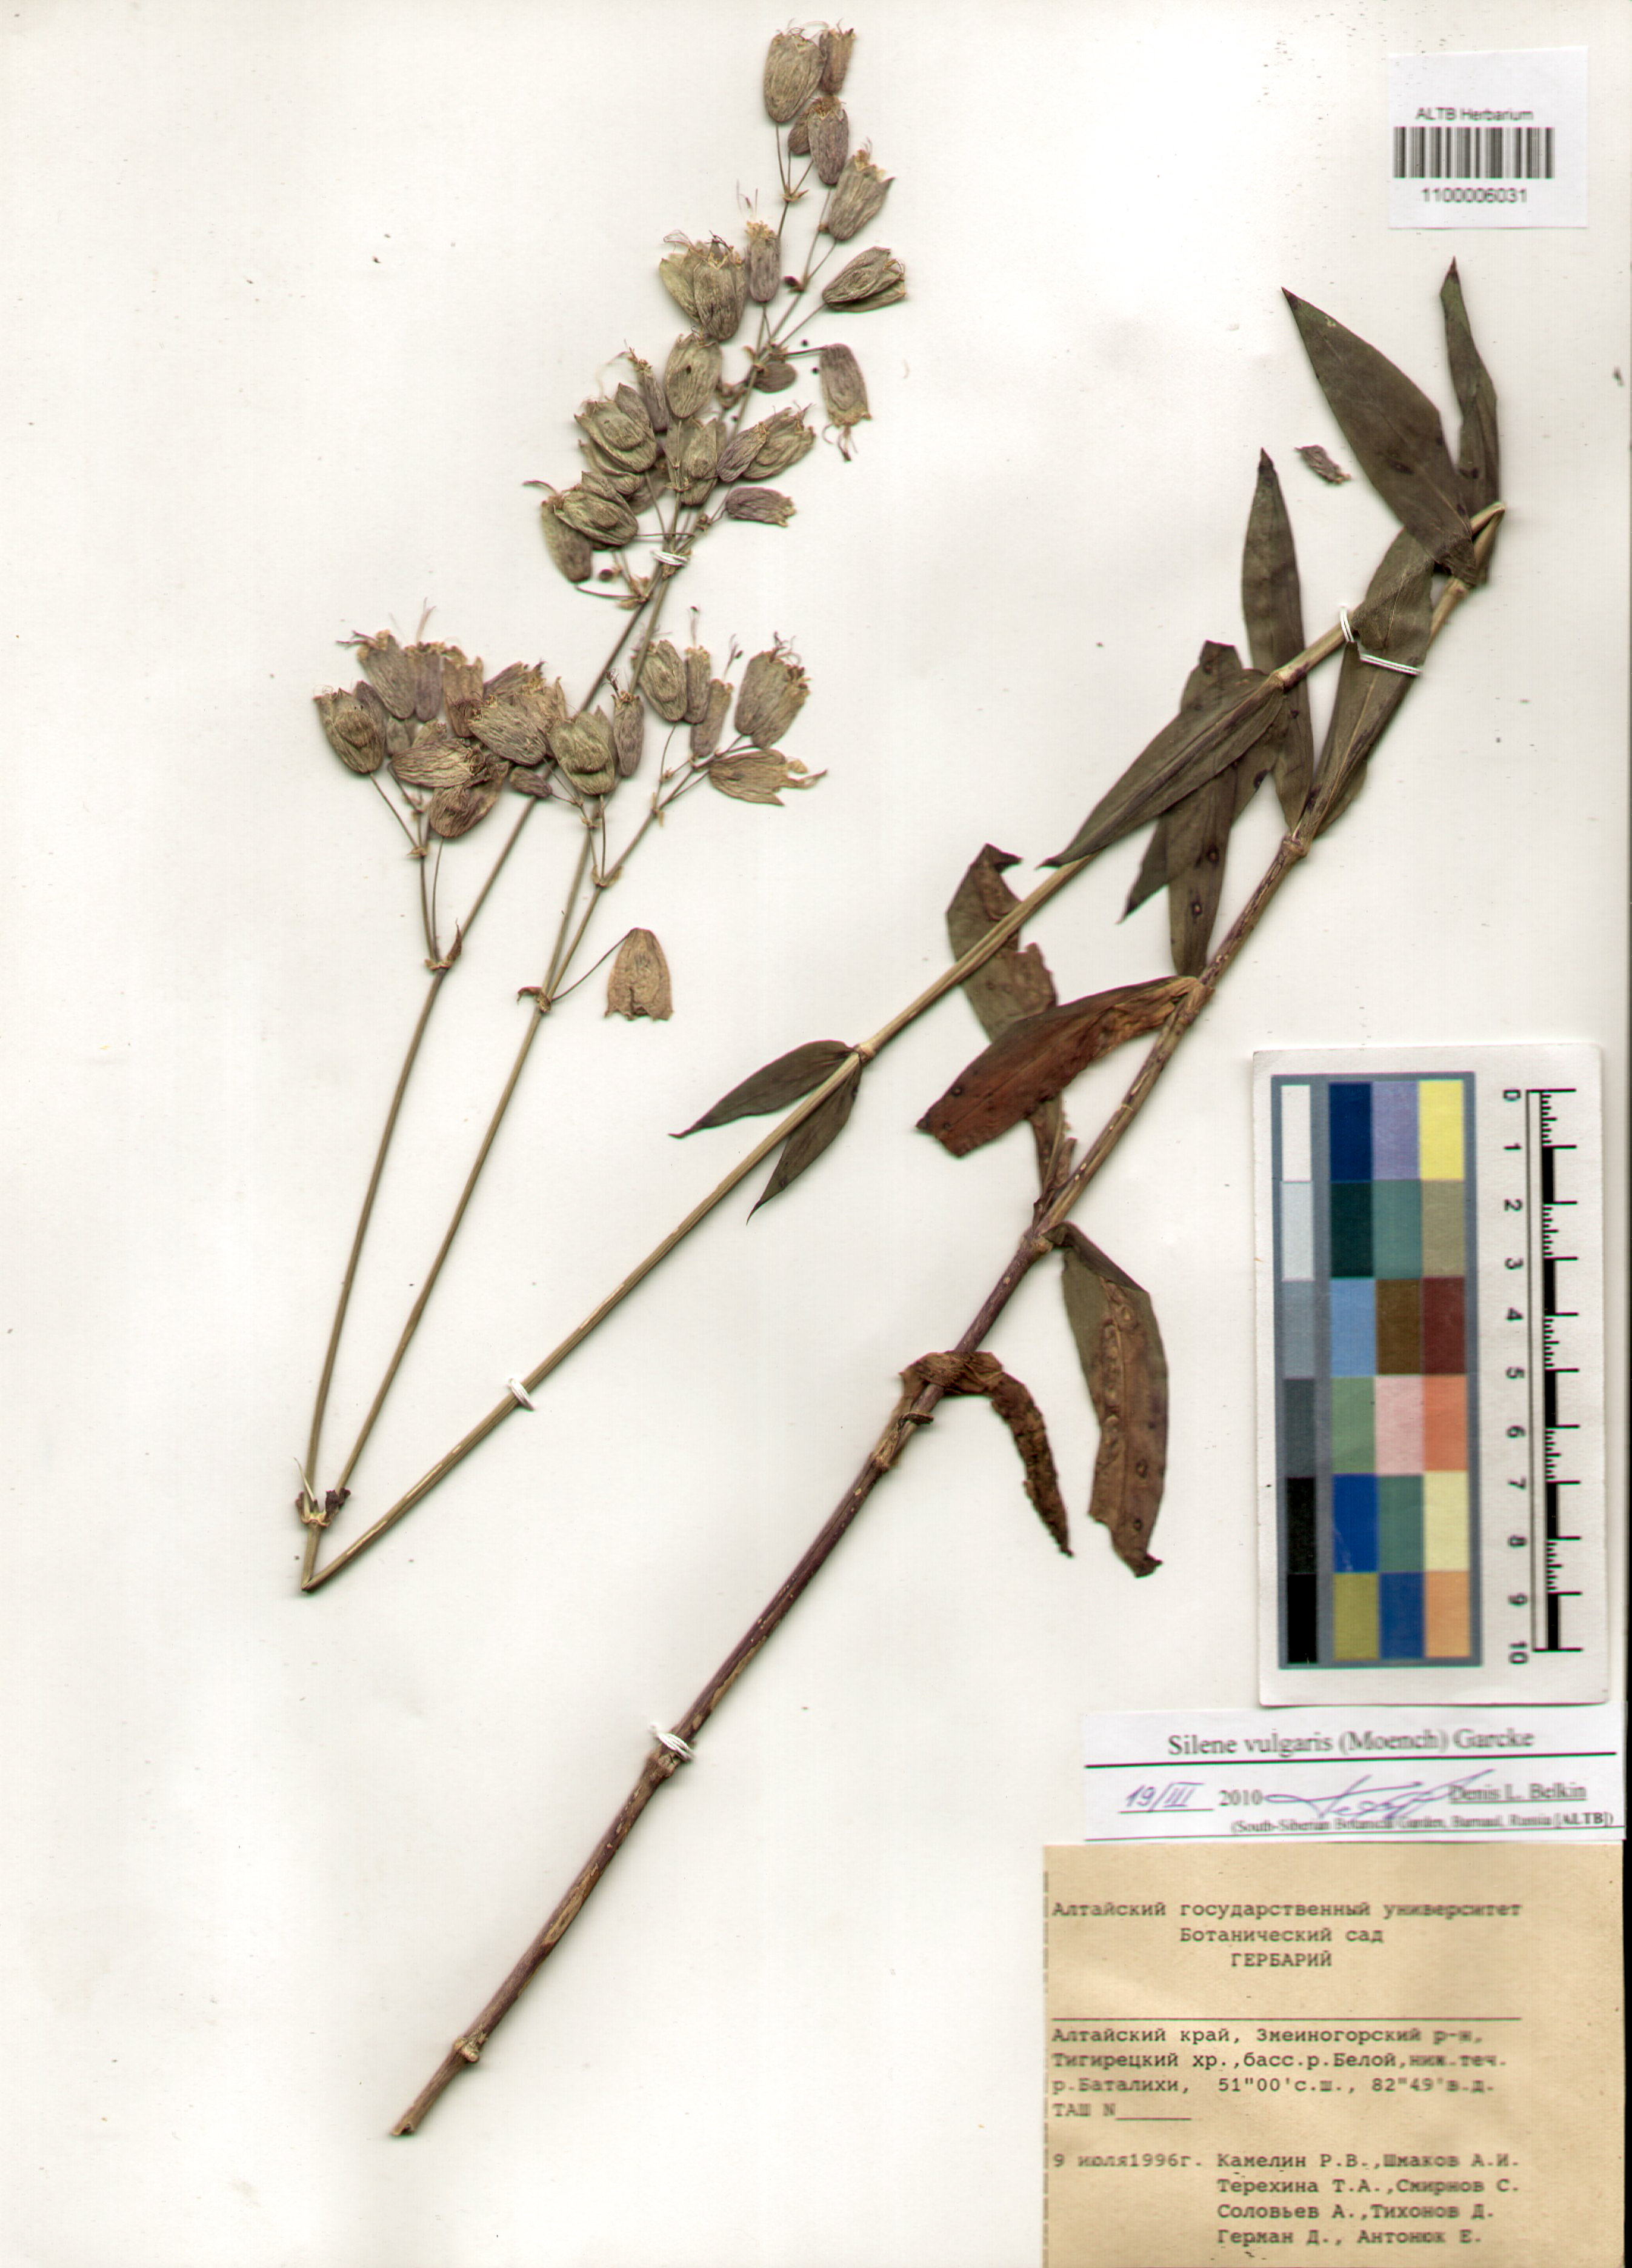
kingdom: Plantae
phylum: Tracheophyta
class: Magnoliopsida
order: Caryophyllales
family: Caryophyllaceae
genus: Silene
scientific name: Silene vulgaris
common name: Bladder campion
